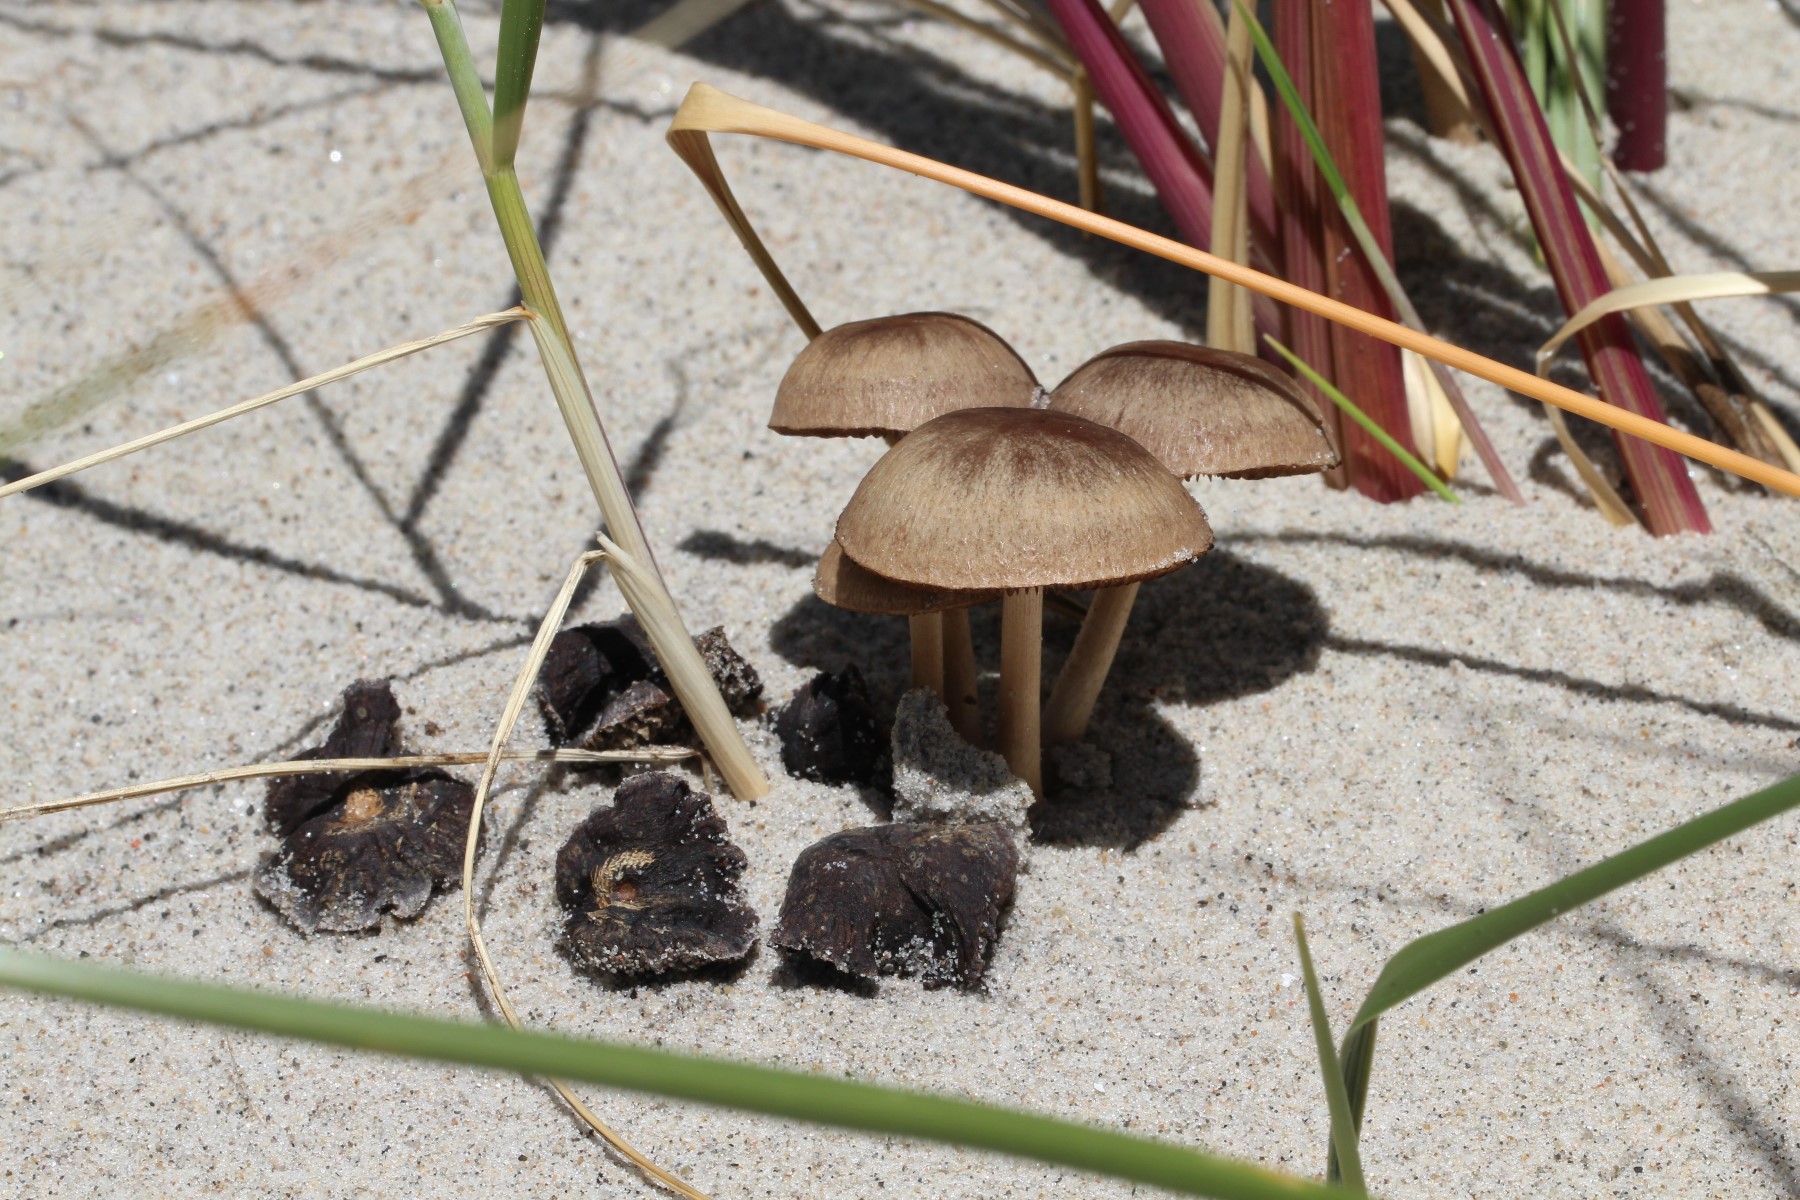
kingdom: Fungi
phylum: Basidiomycota
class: Agaricomycetes
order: Agaricales
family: Psathyrellaceae
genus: Psathyrella
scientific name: Psathyrella ammophila
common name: klit-mørkhat
